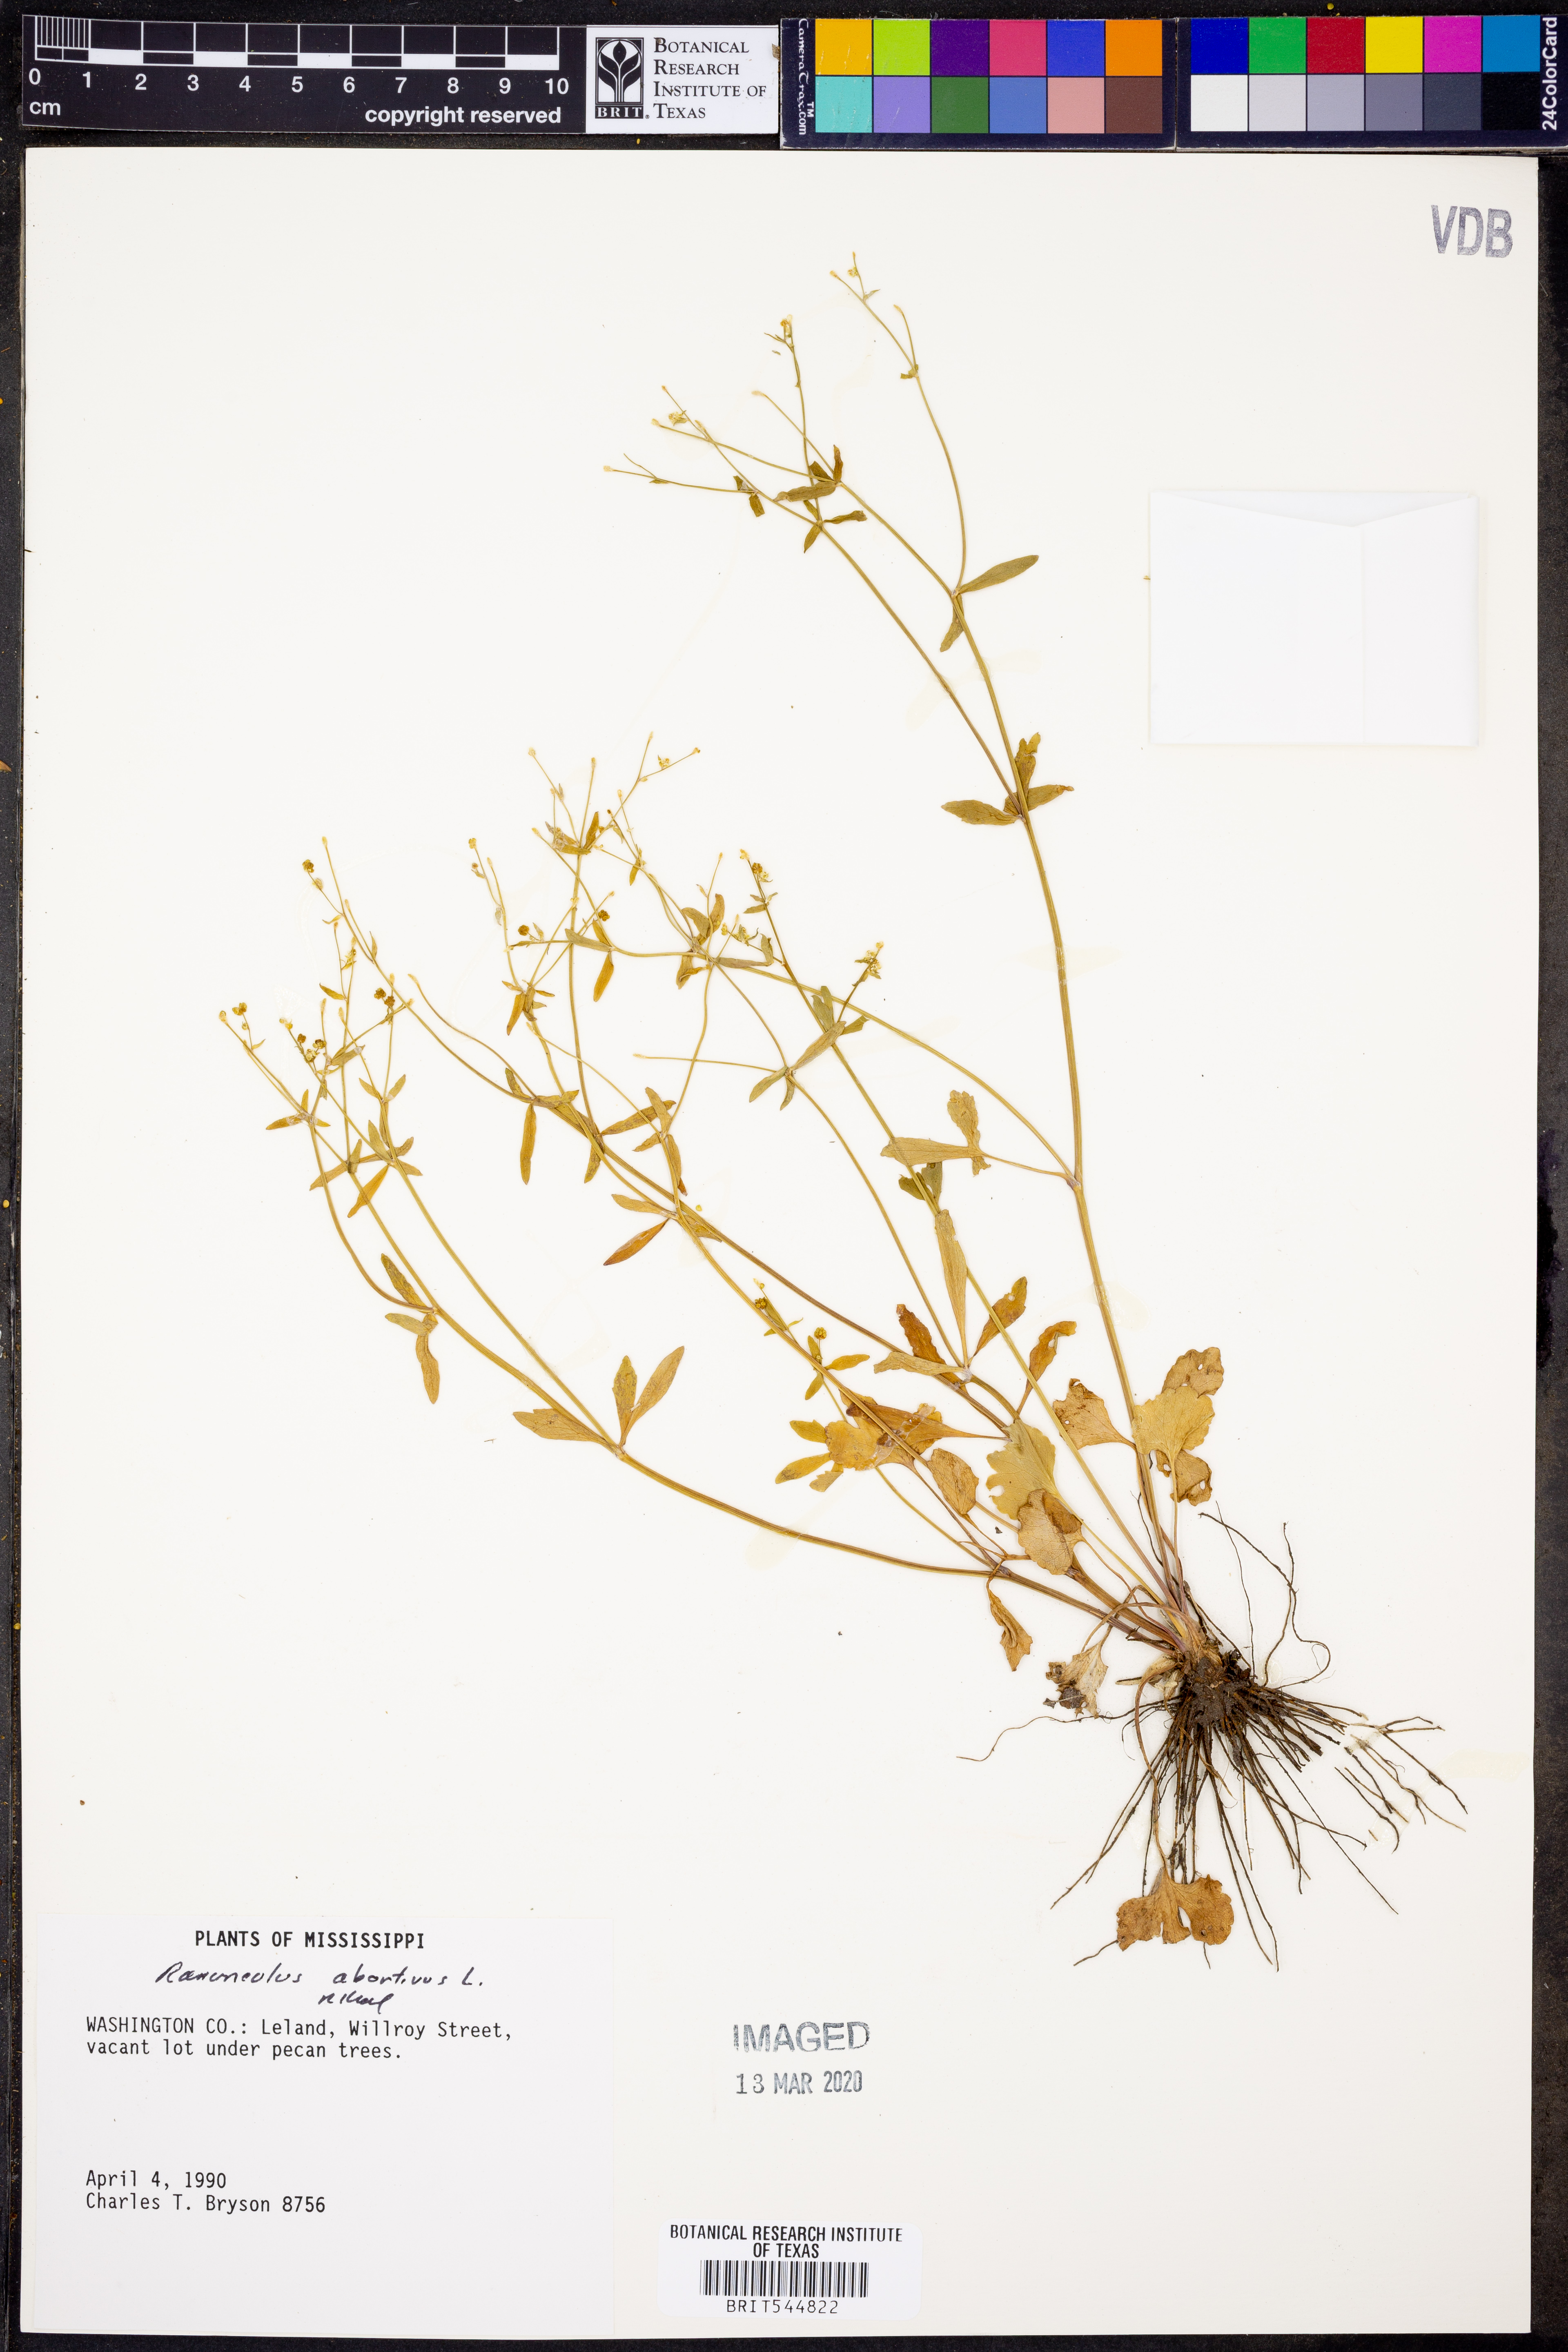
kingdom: Plantae
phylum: Tracheophyta
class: Magnoliopsida
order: Ranunculales
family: Ranunculaceae
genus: Ranunculus
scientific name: Ranunculus abortivus
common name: Early wood buttercup
